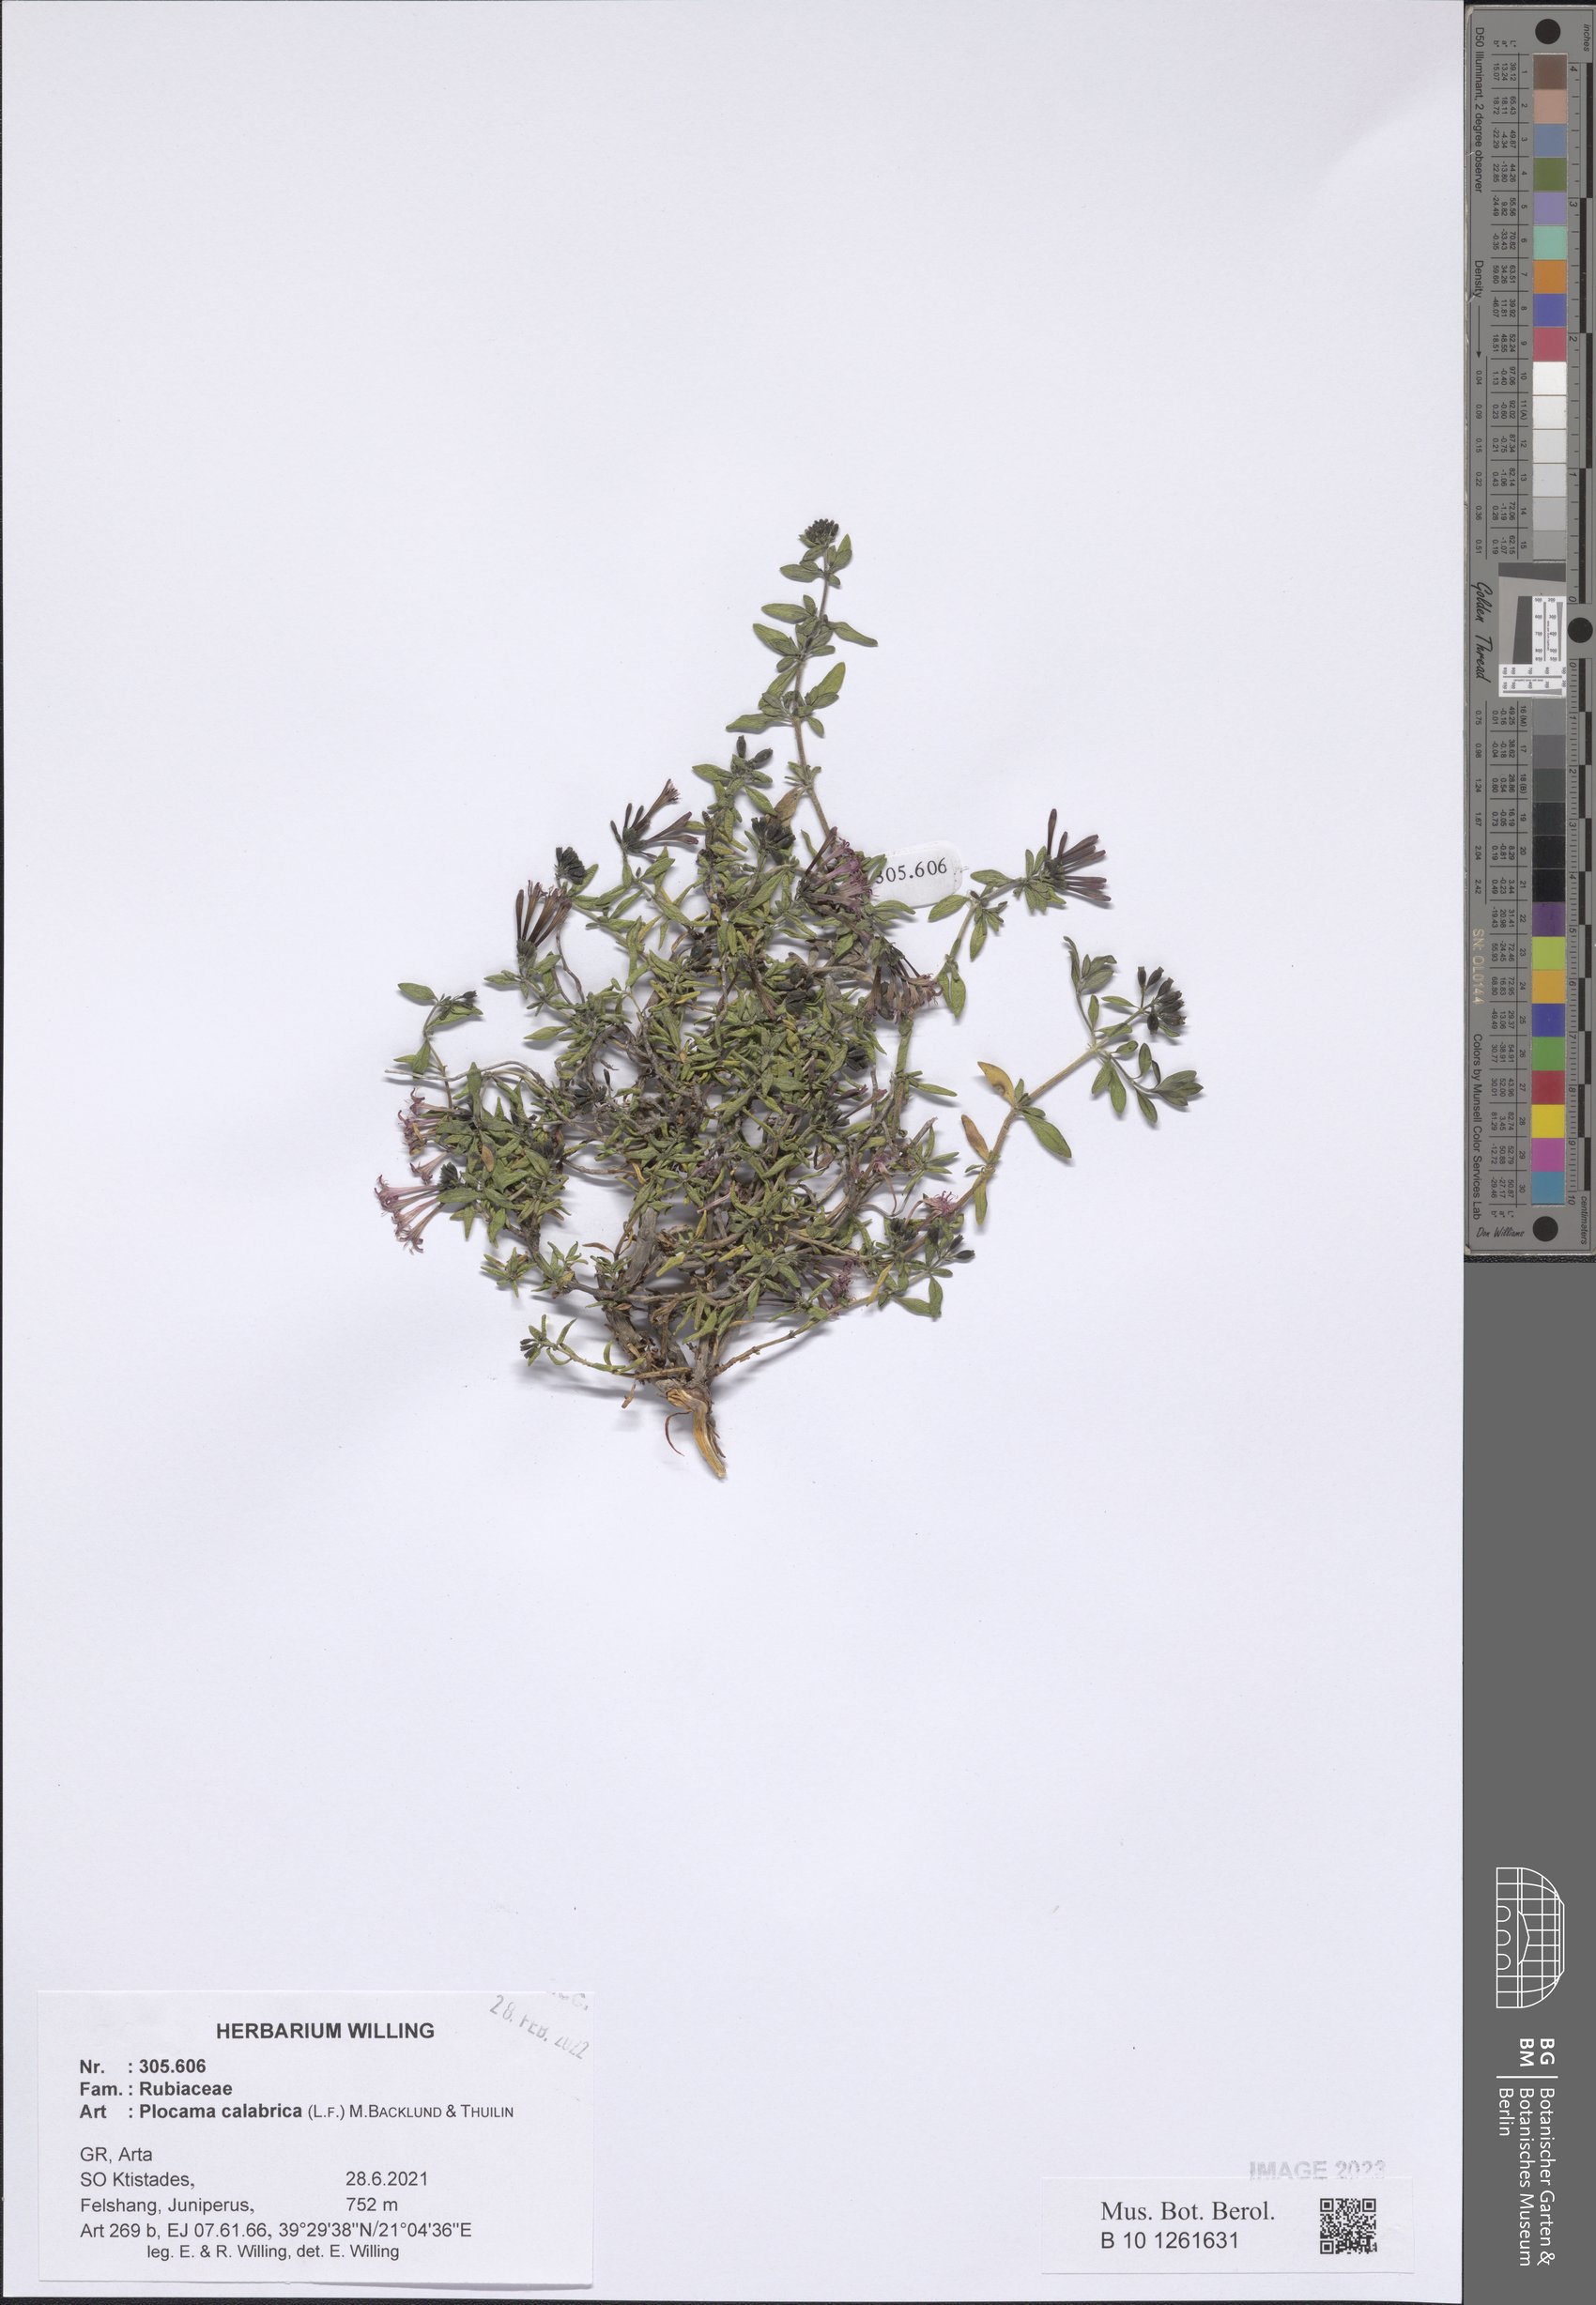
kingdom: Plantae
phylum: Tracheophyta
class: Magnoliopsida
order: Gentianales
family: Rubiaceae
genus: Plocama
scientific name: Plocama calabrica
